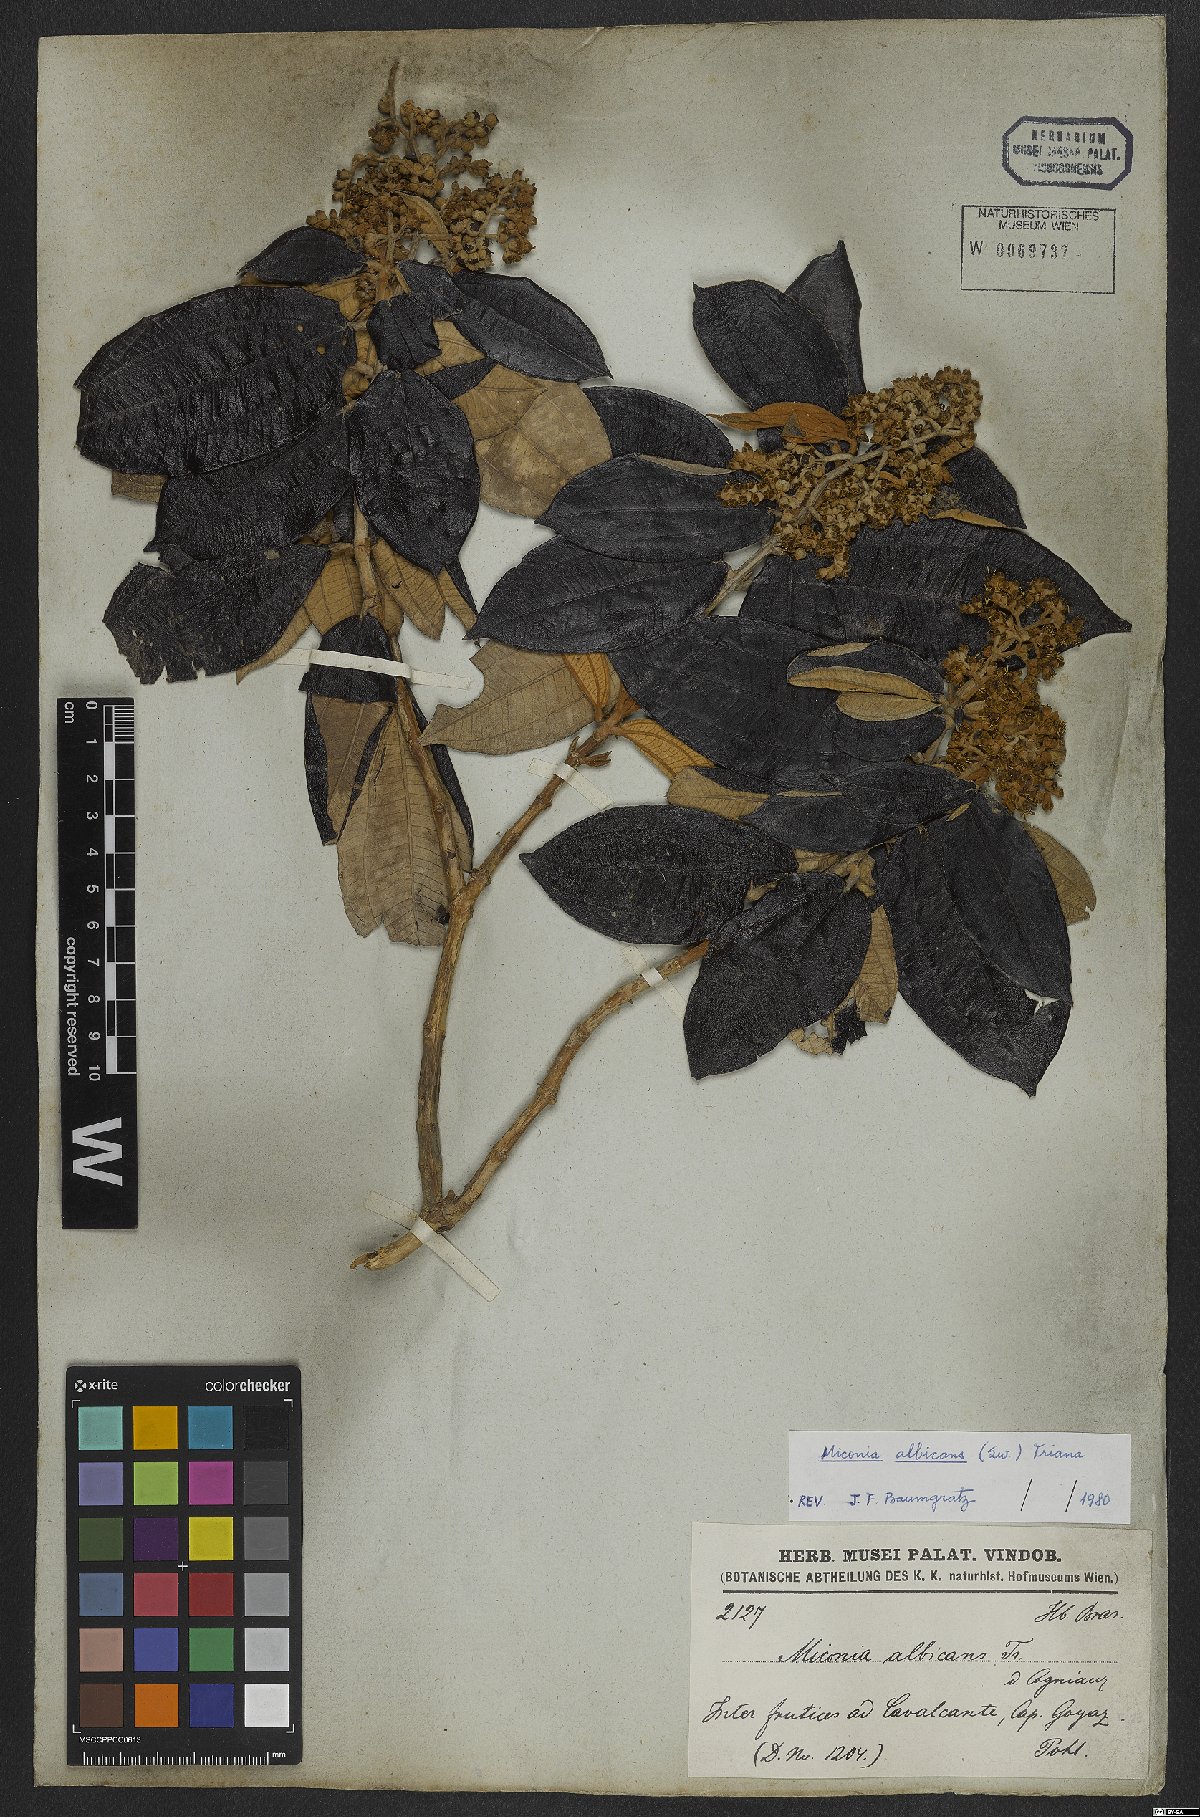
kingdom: Plantae
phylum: Tracheophyta
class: Magnoliopsida
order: Myrtales
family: Melastomataceae
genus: Miconia
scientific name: Miconia albicans
